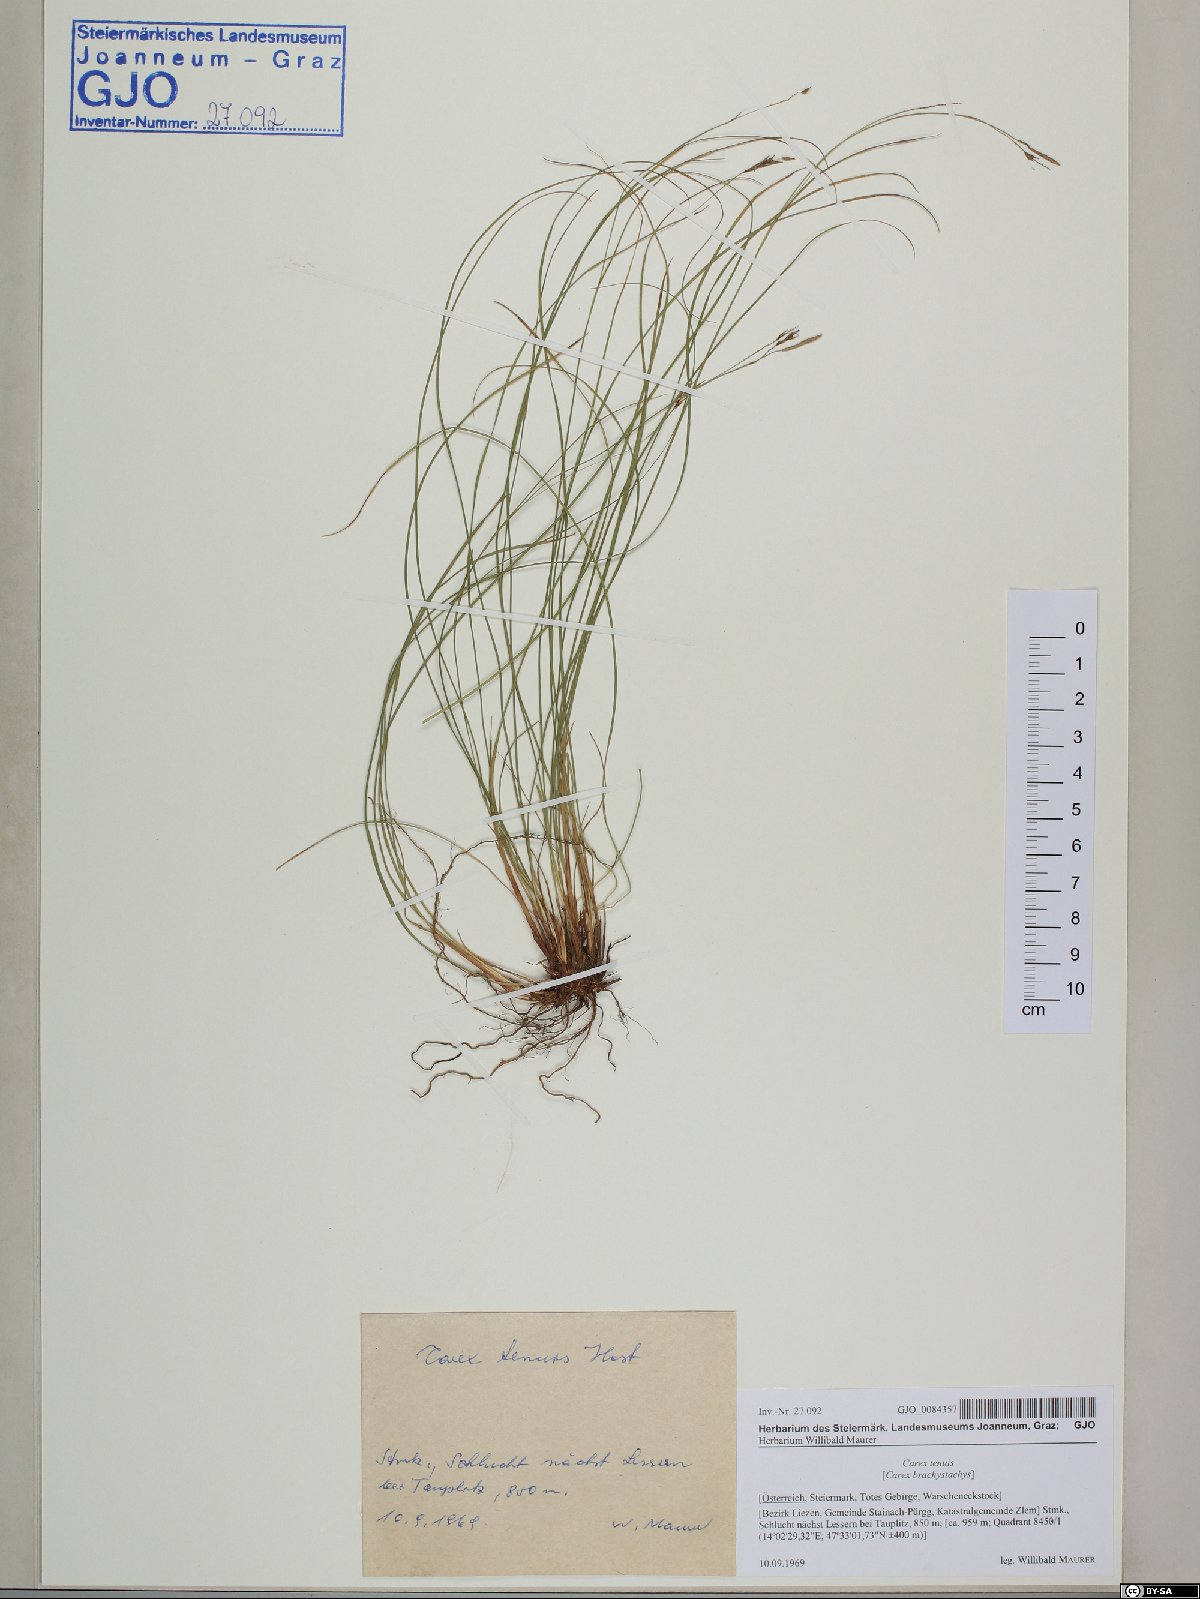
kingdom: Plantae
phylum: Tracheophyta
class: Liliopsida
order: Poales
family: Cyperaceae
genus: Carex
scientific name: Carex brachystachys
